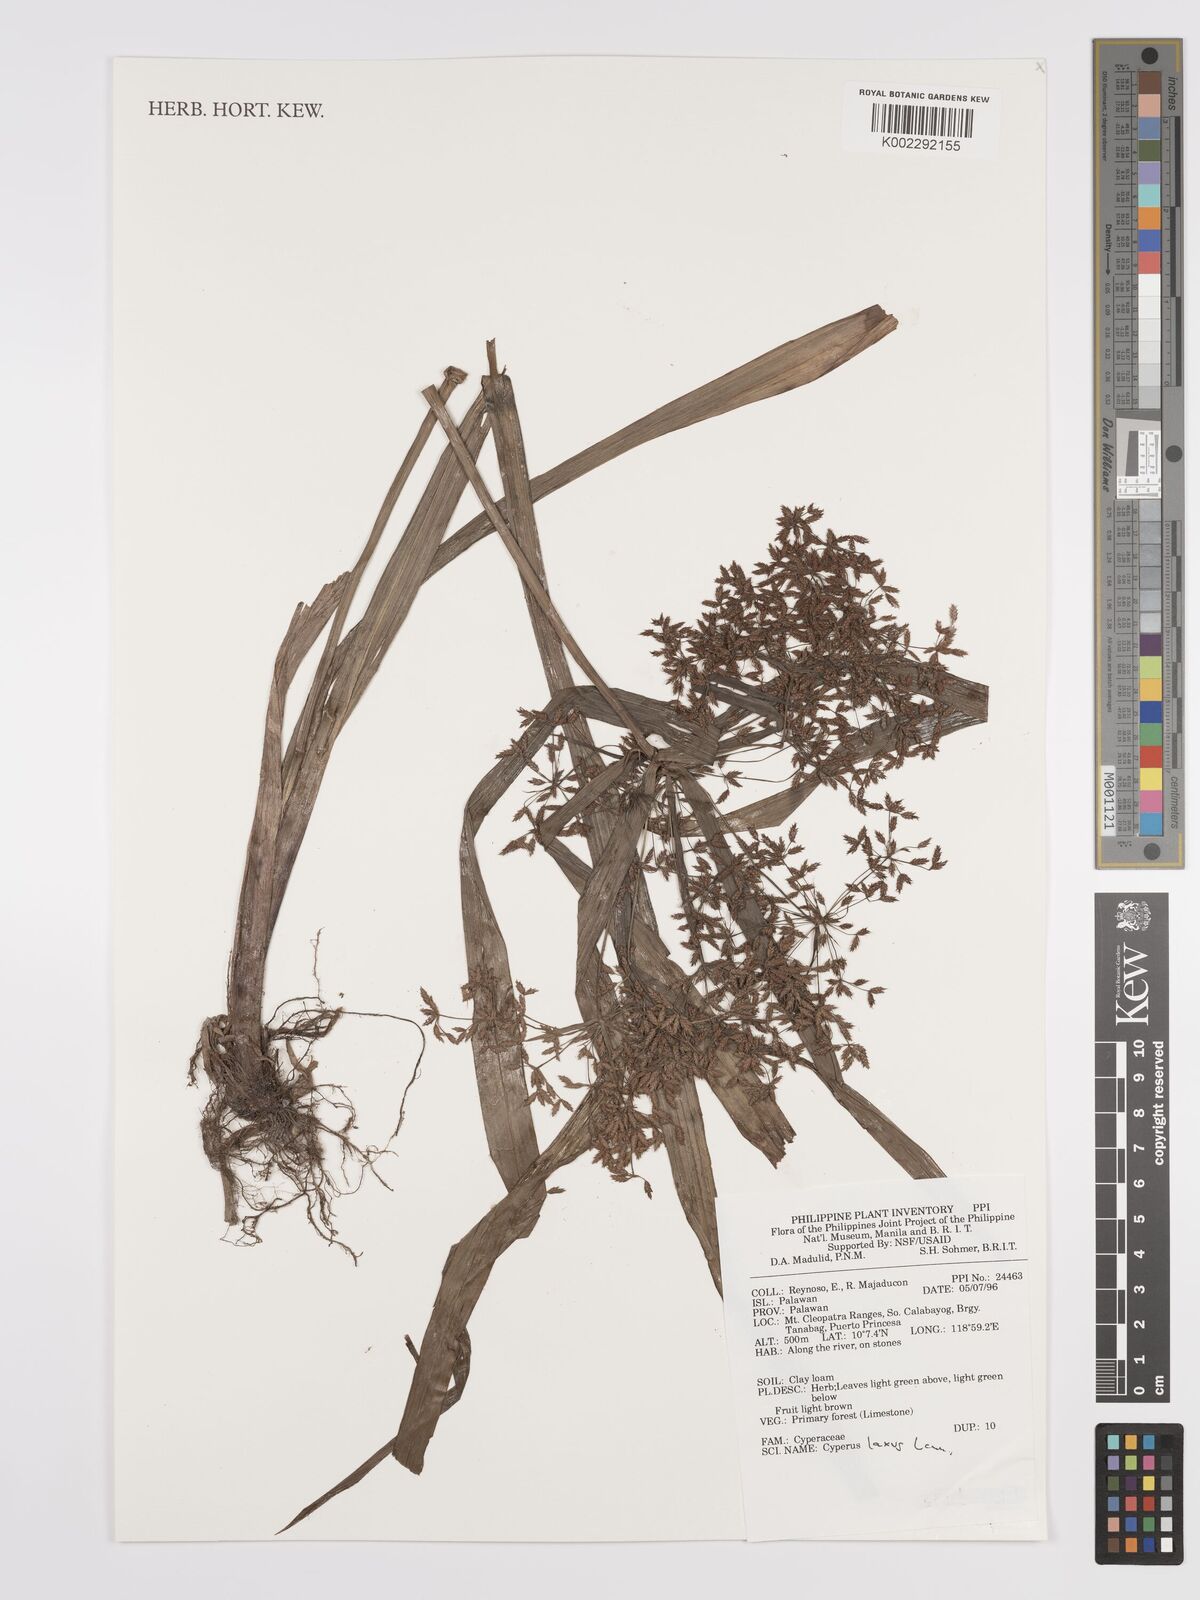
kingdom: Plantae
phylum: Tracheophyta
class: Liliopsida
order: Poales
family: Cyperaceae
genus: Cyperus
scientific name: Cyperus diffusus
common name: Dwarf umbrella grass
